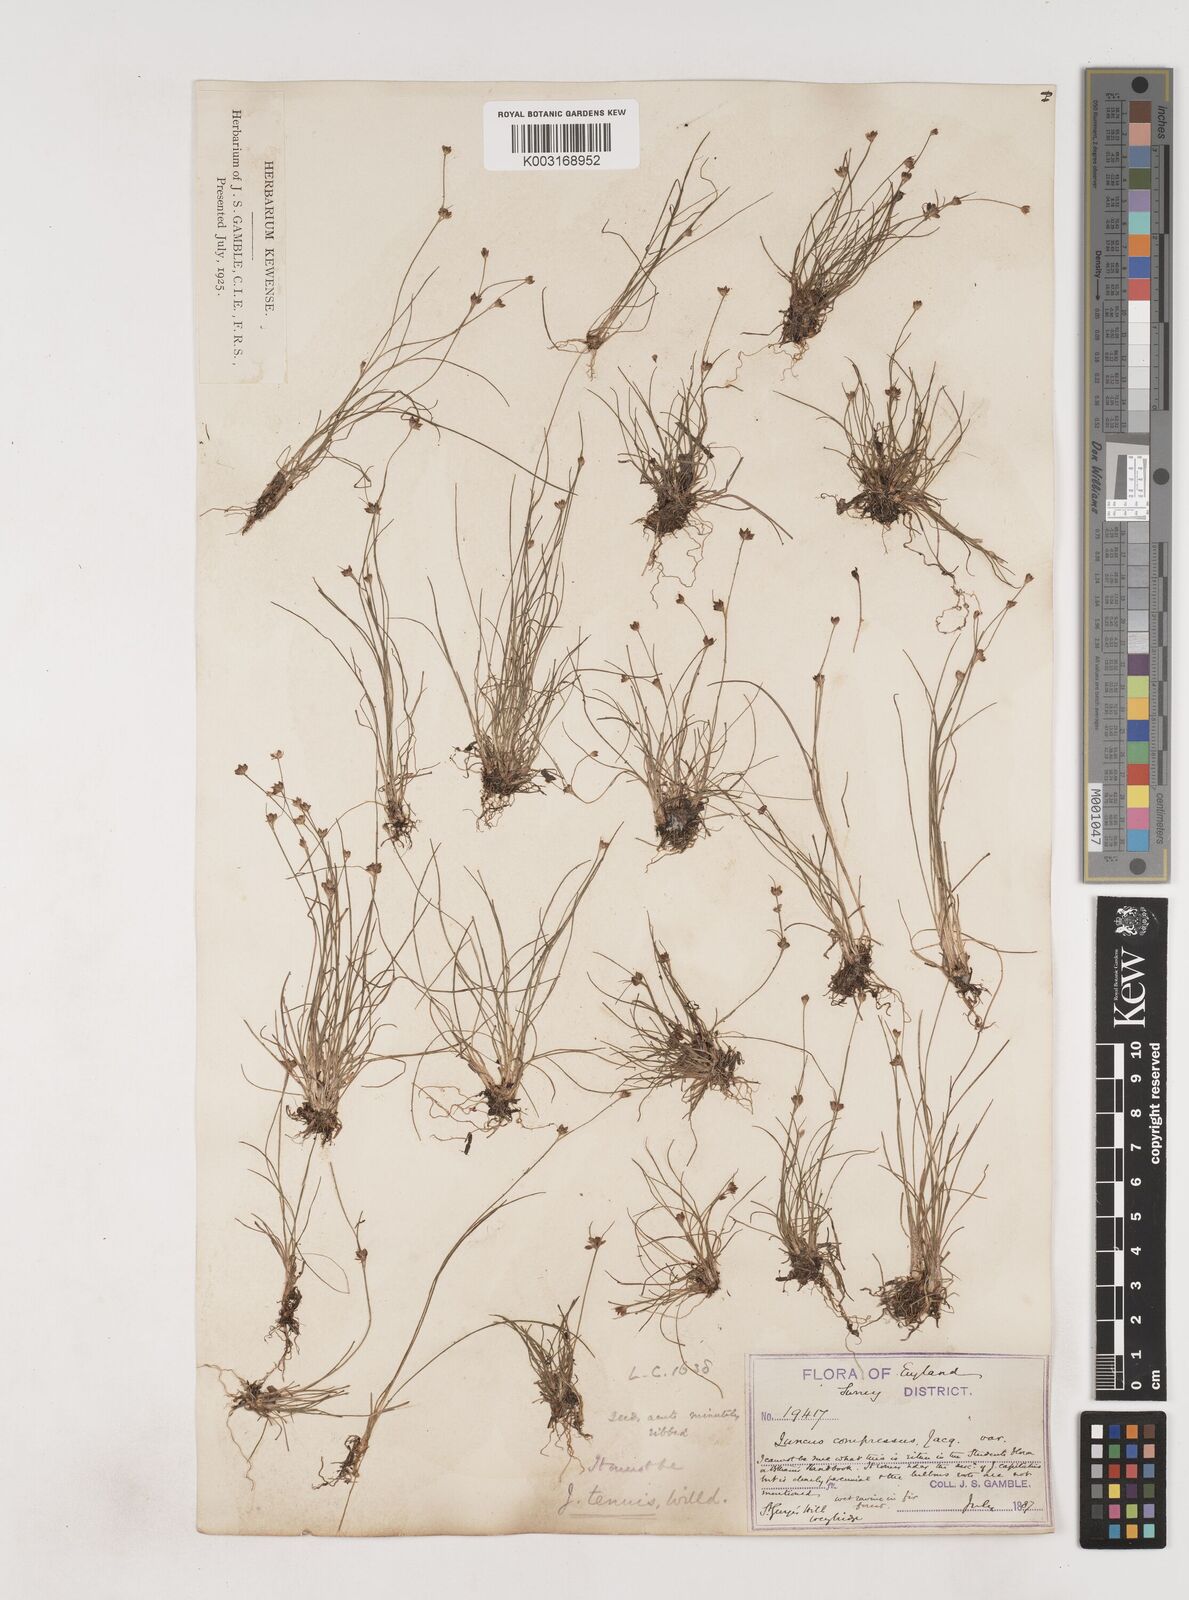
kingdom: Plantae
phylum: Tracheophyta
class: Liliopsida
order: Poales
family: Juncaceae
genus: Juncus
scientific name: Juncus bulbosus
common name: Bulbous rush
